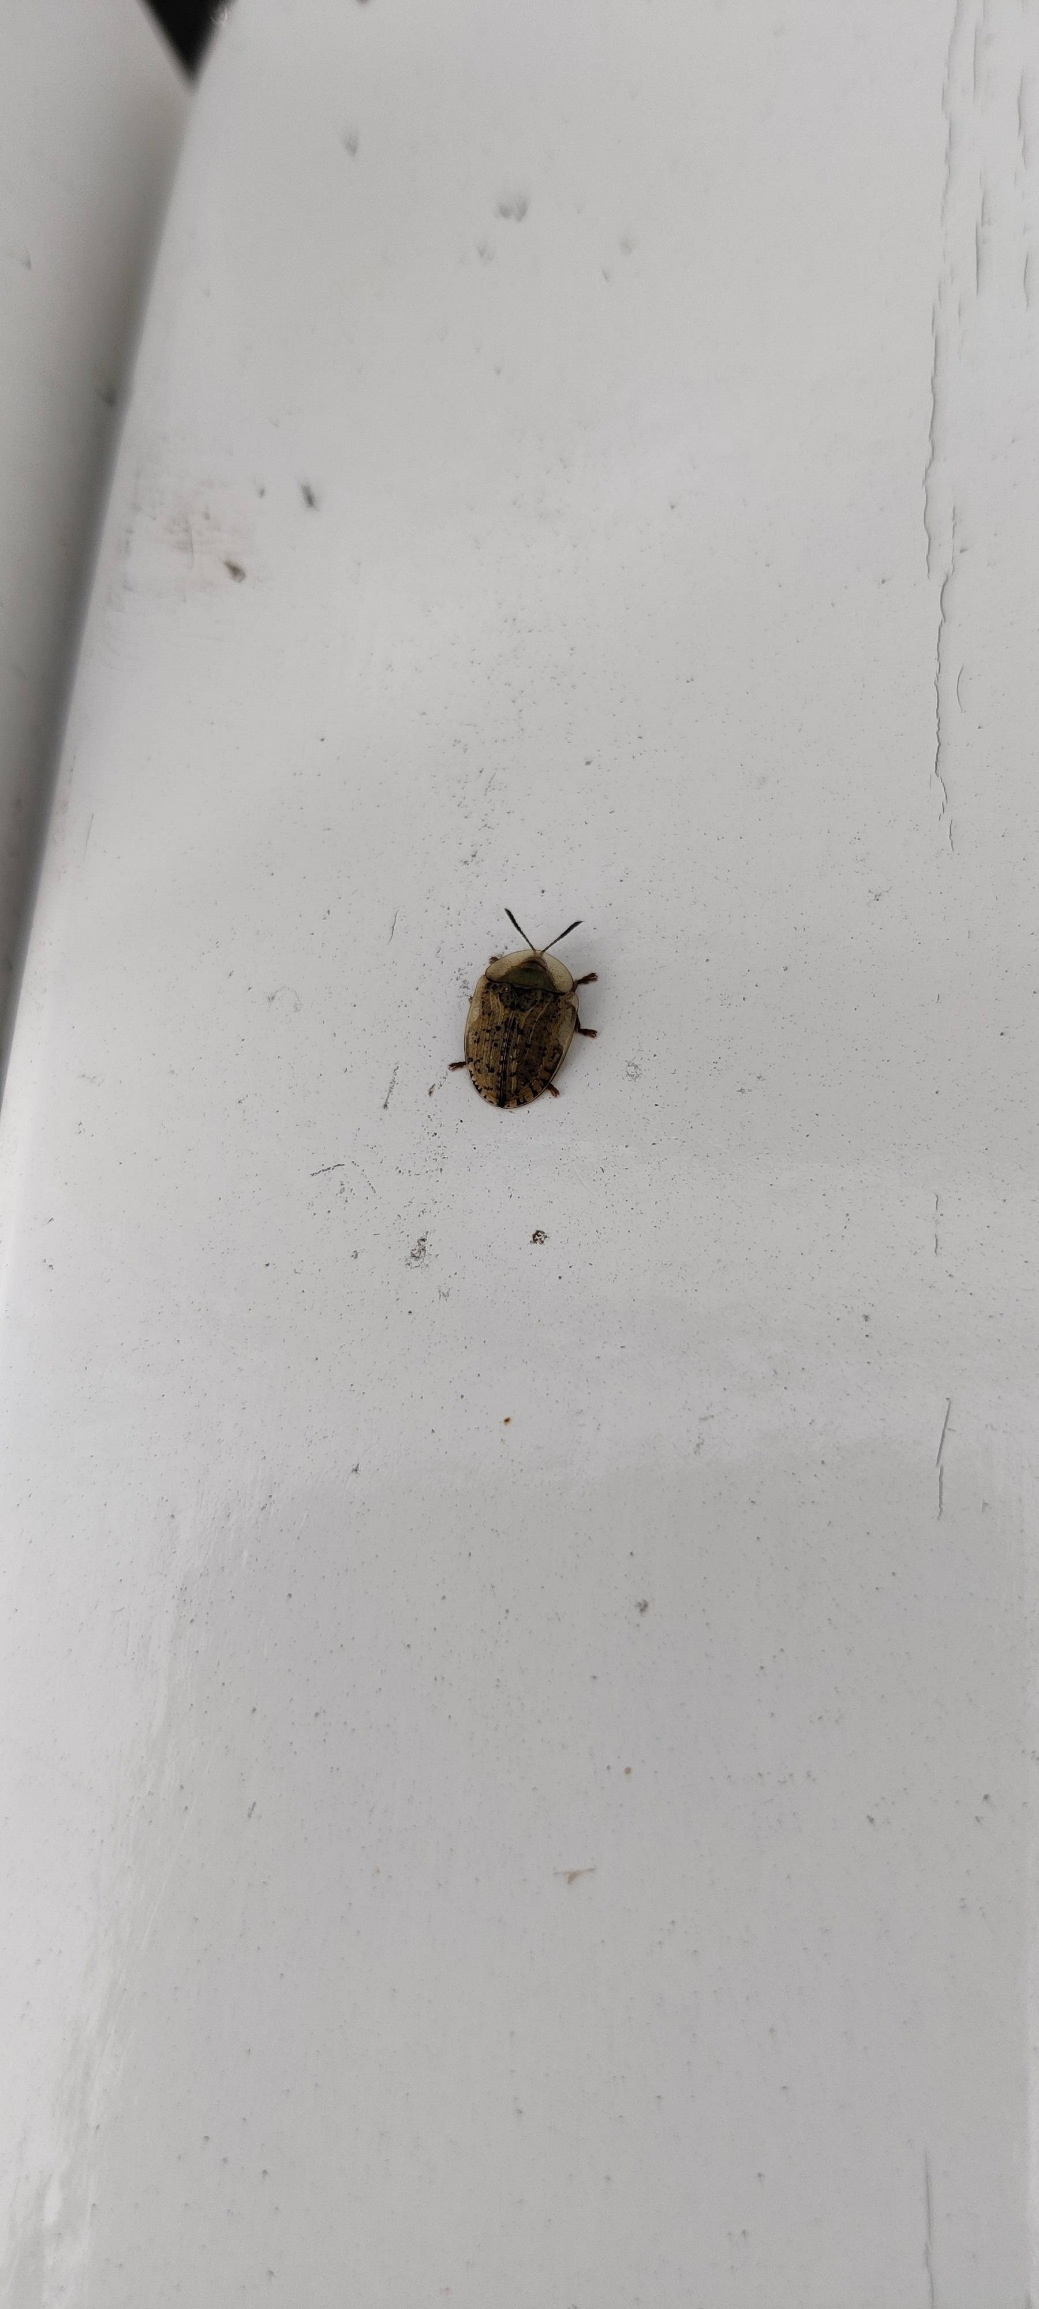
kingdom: Animalia
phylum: Arthropoda
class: Insecta
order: Coleoptera
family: Chrysomelidae
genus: Cassida
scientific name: Cassida nebulosa
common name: Plettet skjoldbille
